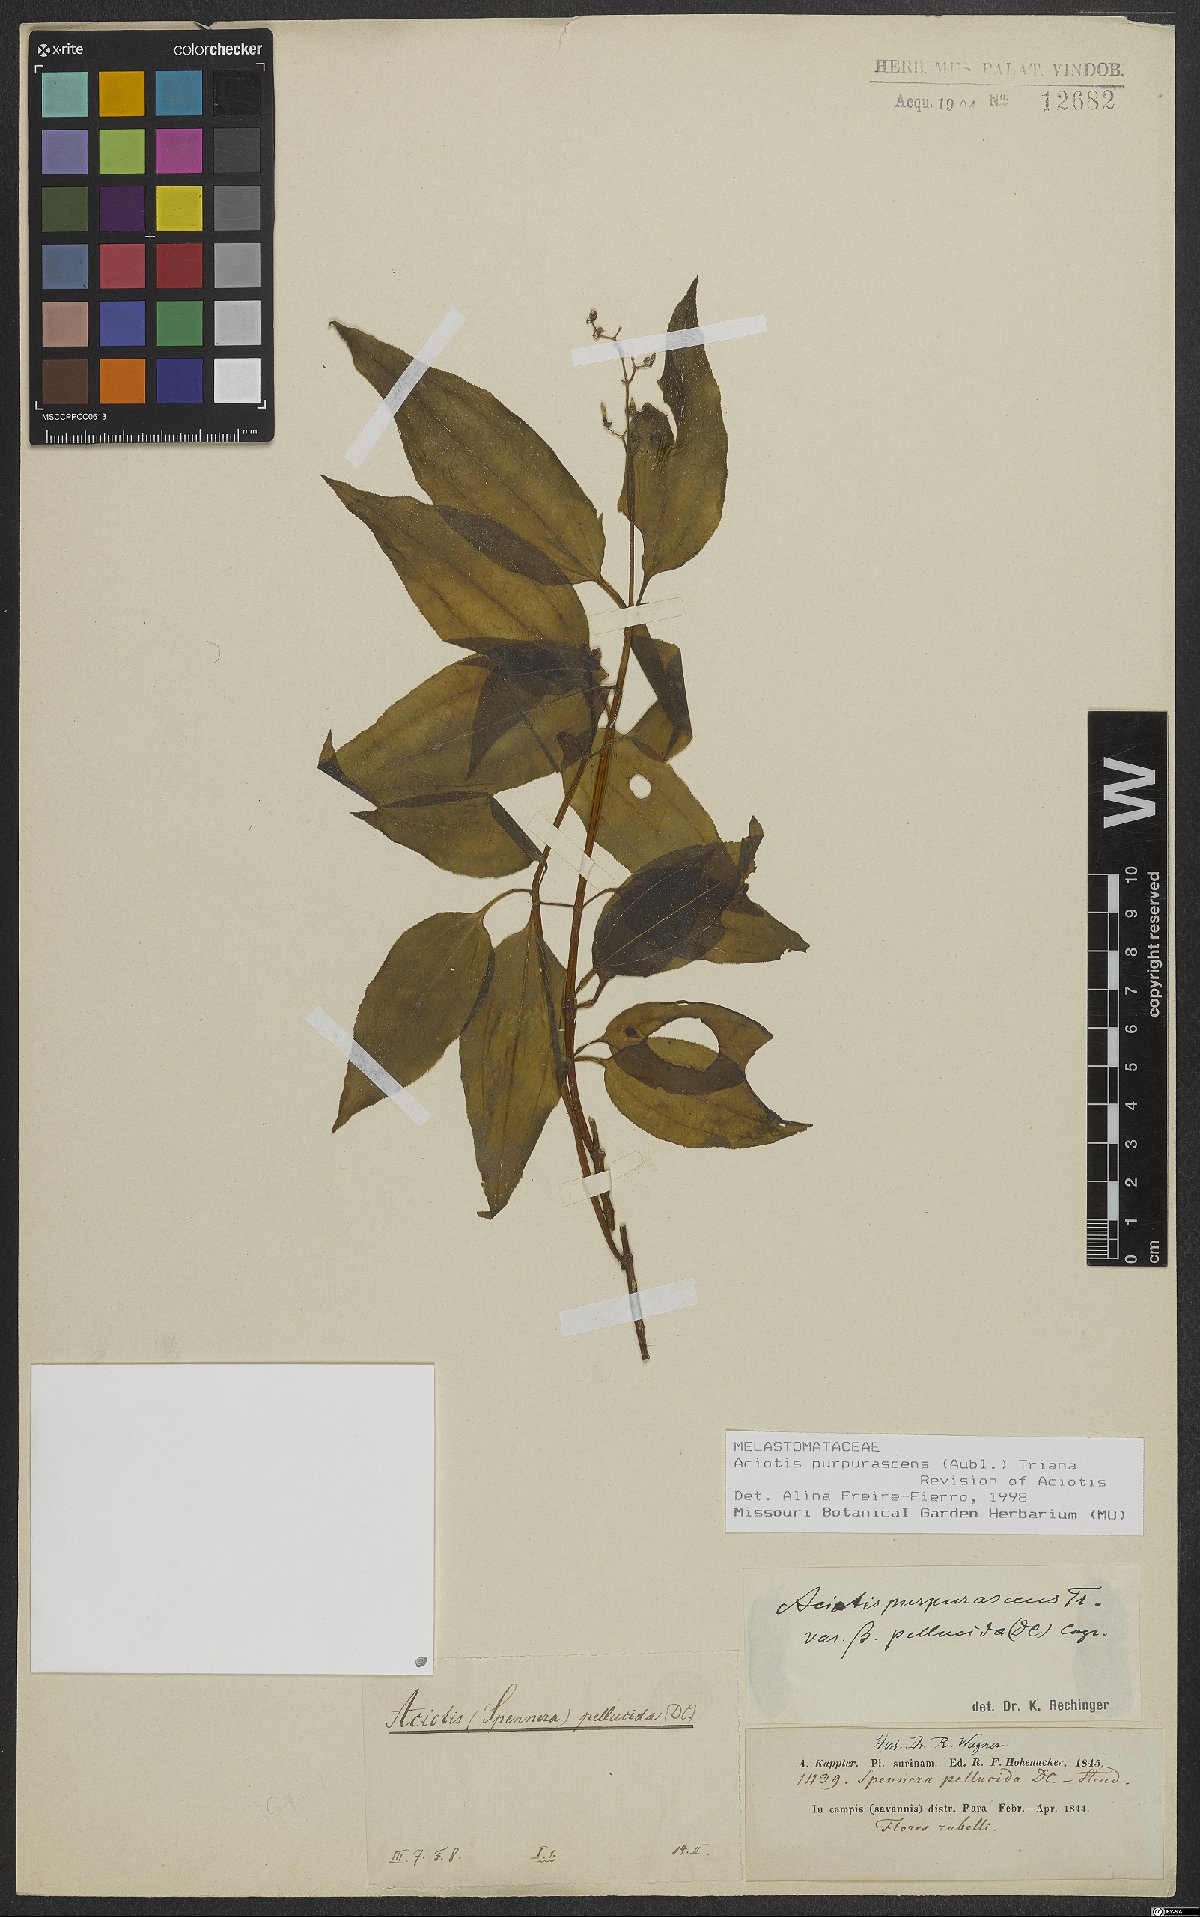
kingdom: Plantae
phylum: Tracheophyta
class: Magnoliopsida
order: Myrtales
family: Melastomataceae
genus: Aciotis
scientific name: Aciotis purpurascens
